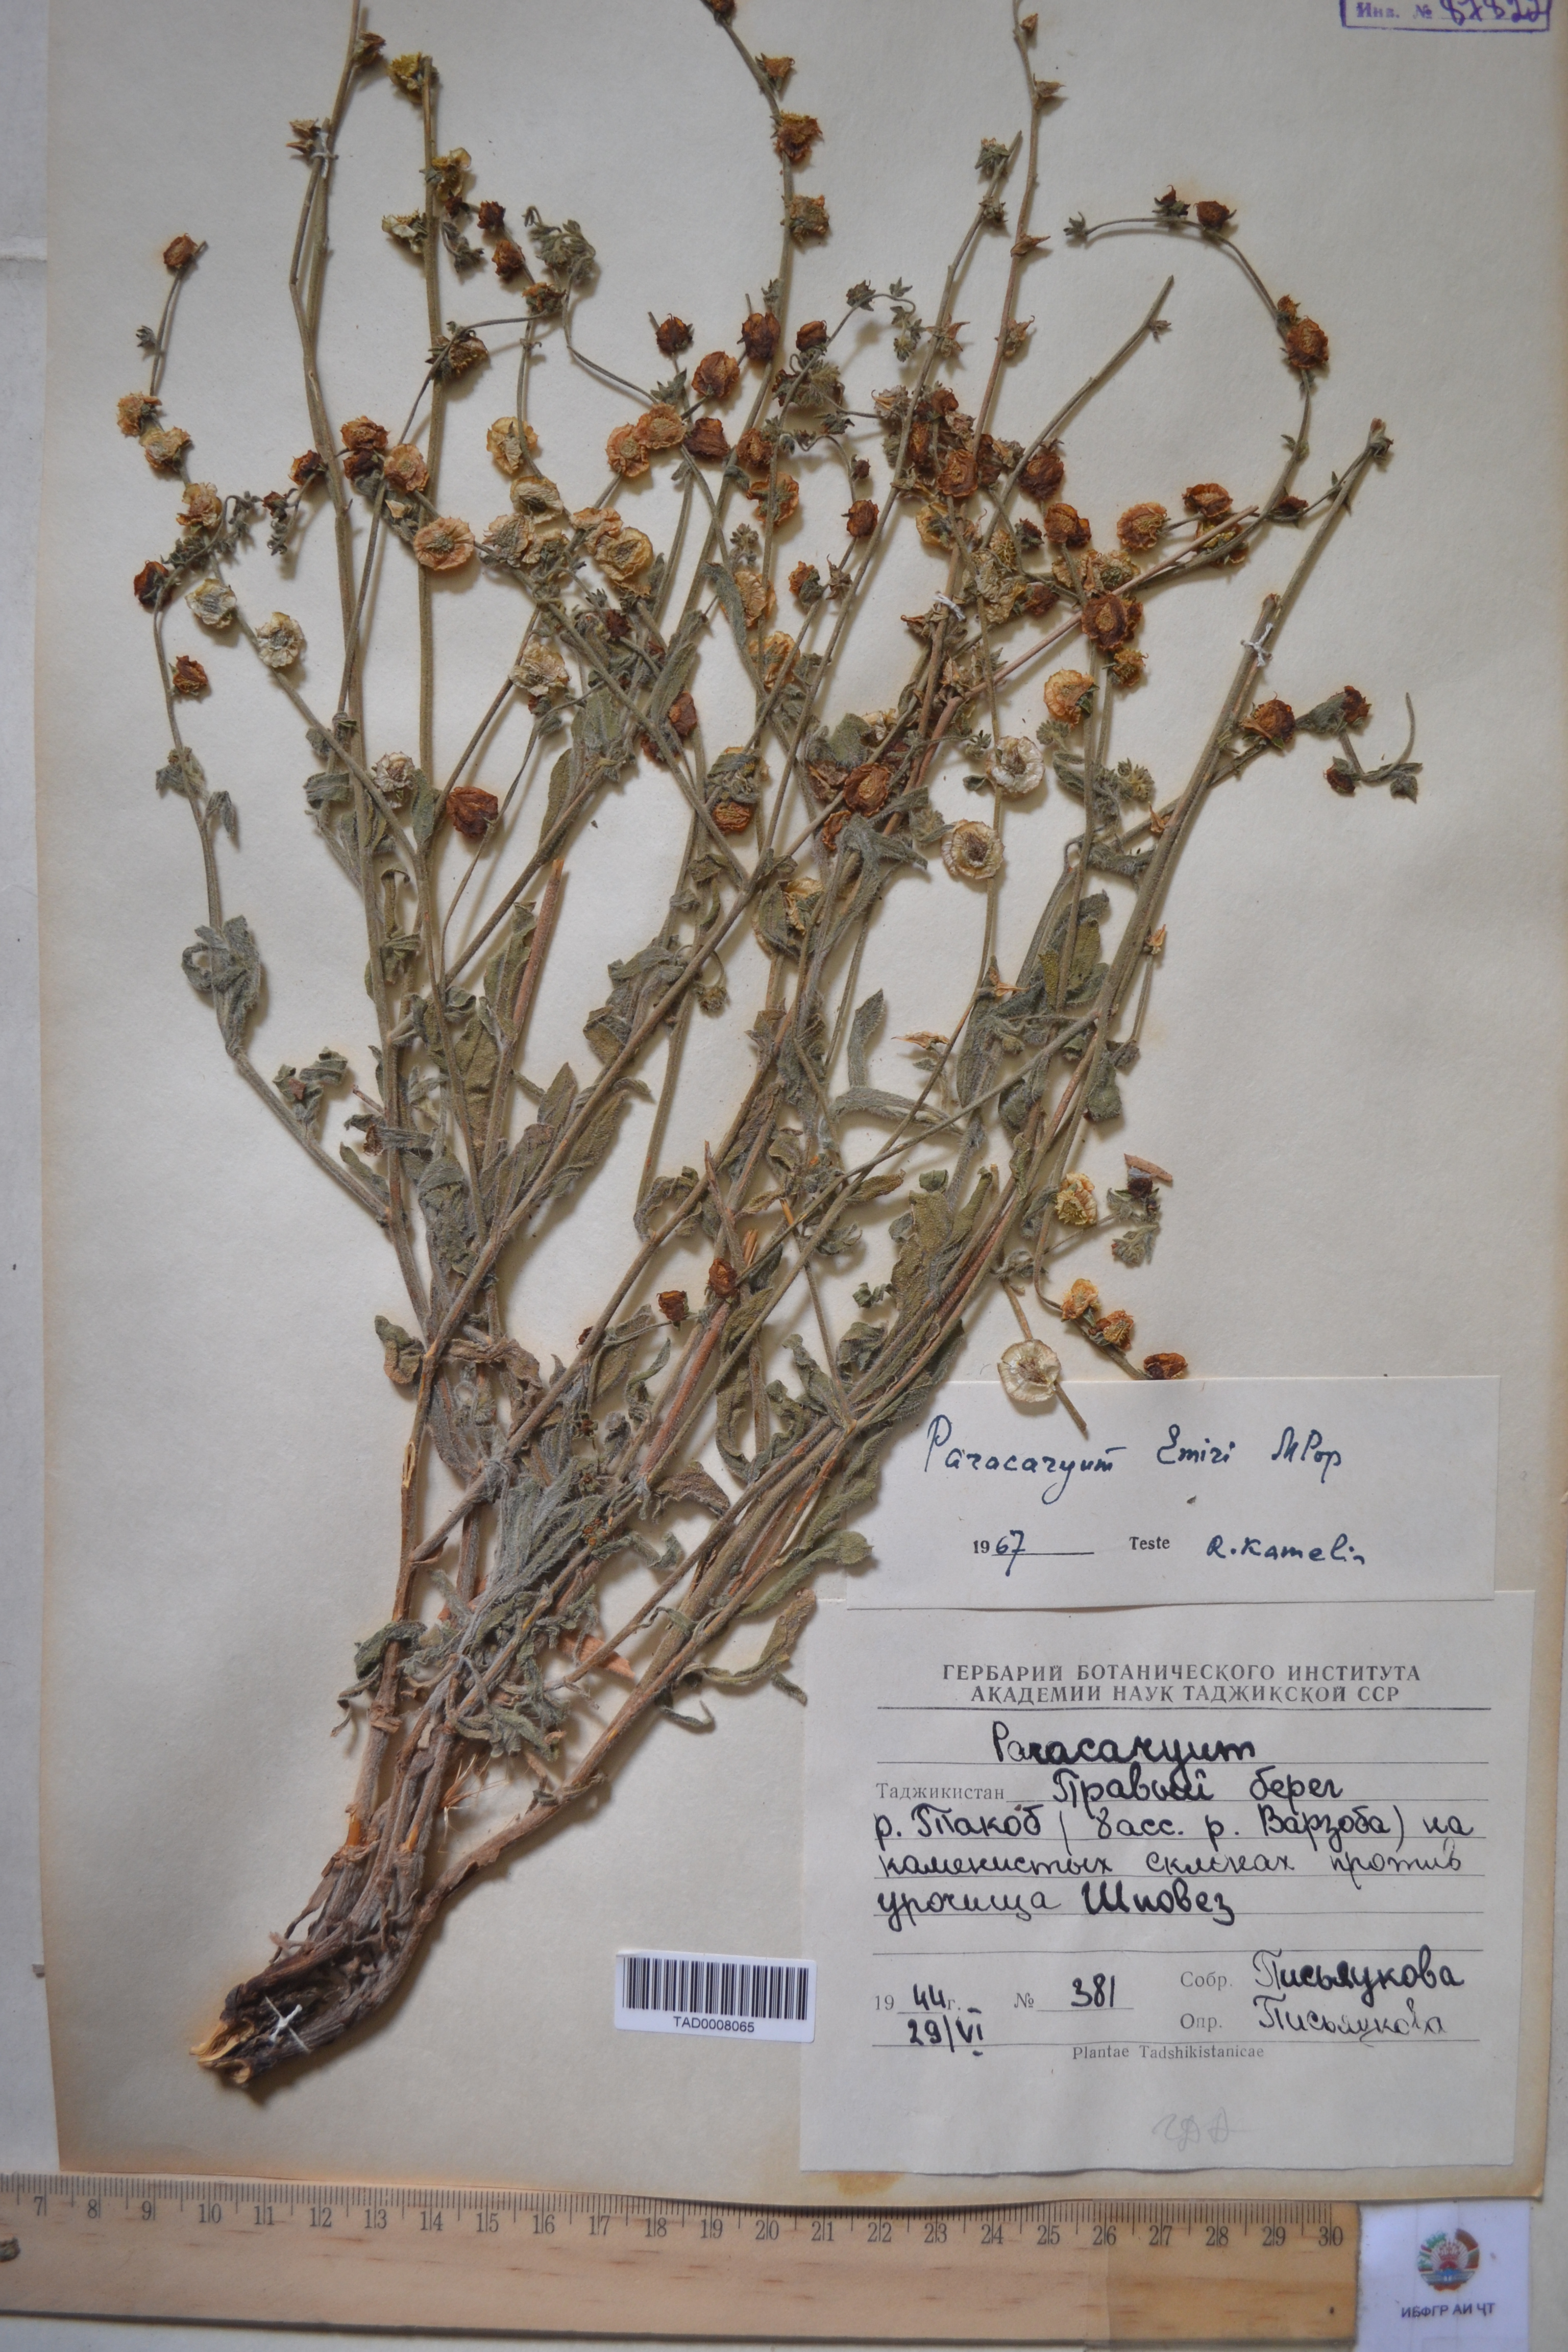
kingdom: Plantae
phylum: Tracheophyta
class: Magnoliopsida
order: Boraginales
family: Boraginaceae
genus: Paracaryum
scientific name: Paracaryum himalayense
